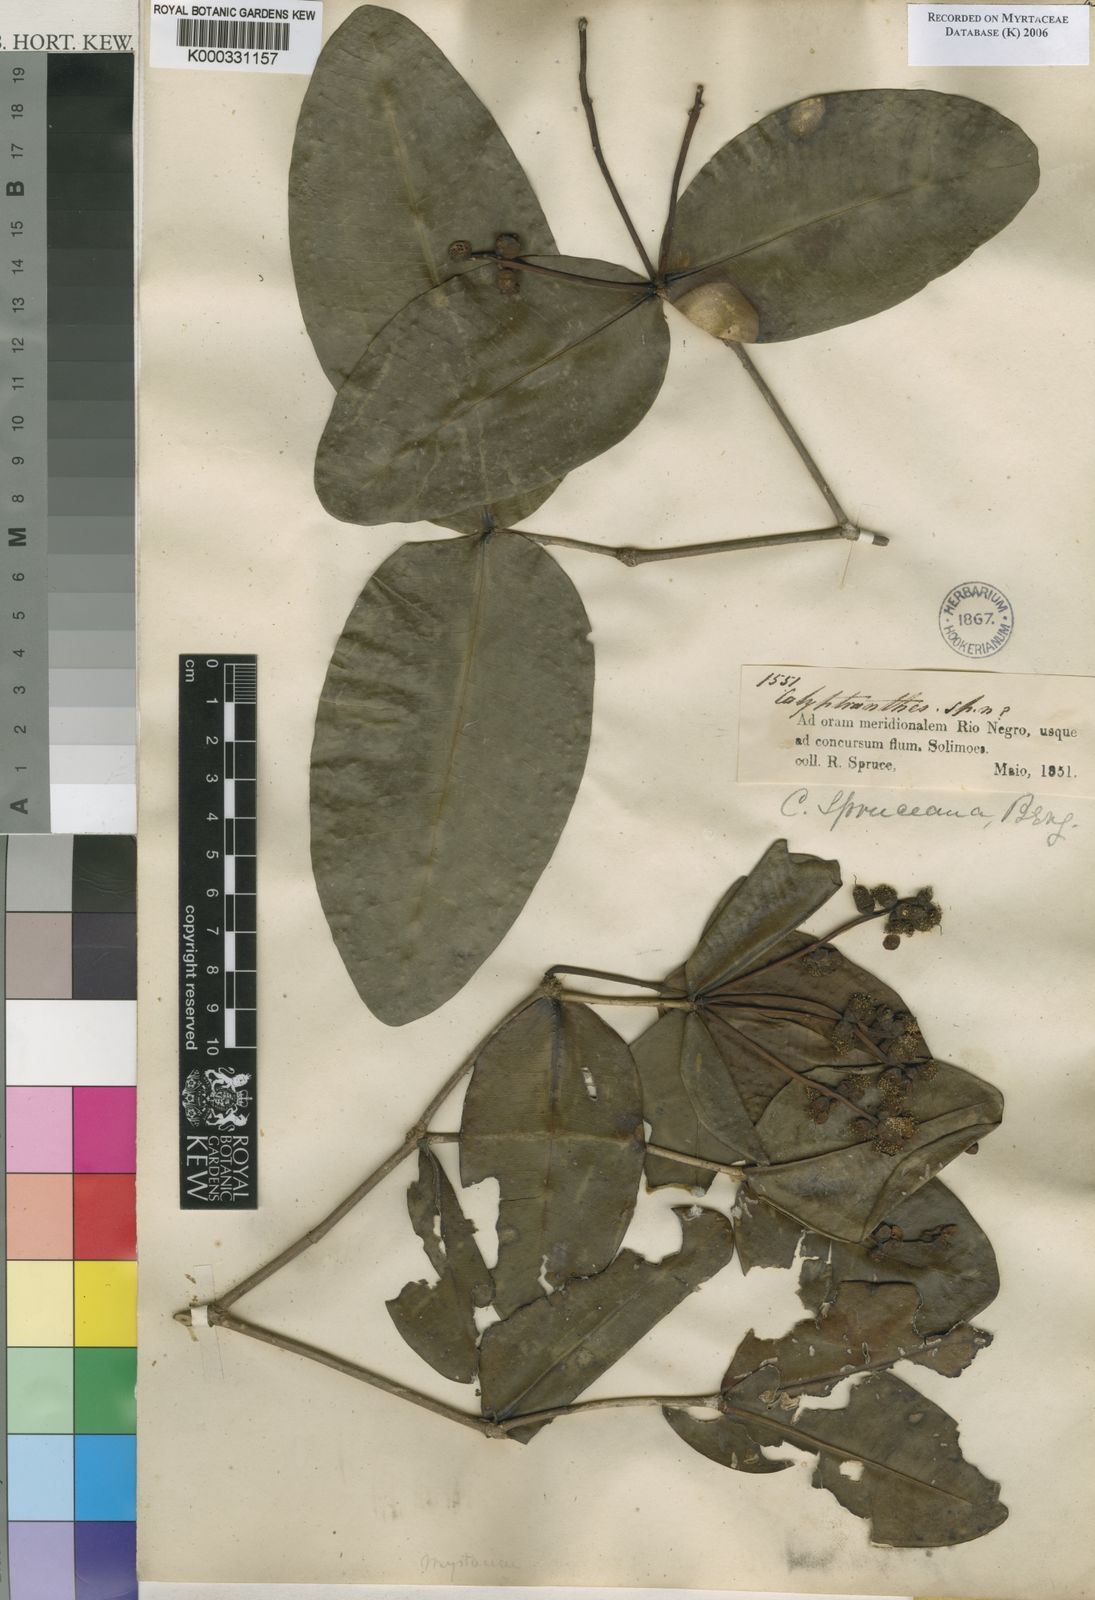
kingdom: Plantae
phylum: Tracheophyta
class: Magnoliopsida
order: Myrtales
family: Myrtaceae
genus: Myrcia
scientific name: Myrcia hedraiophylla
